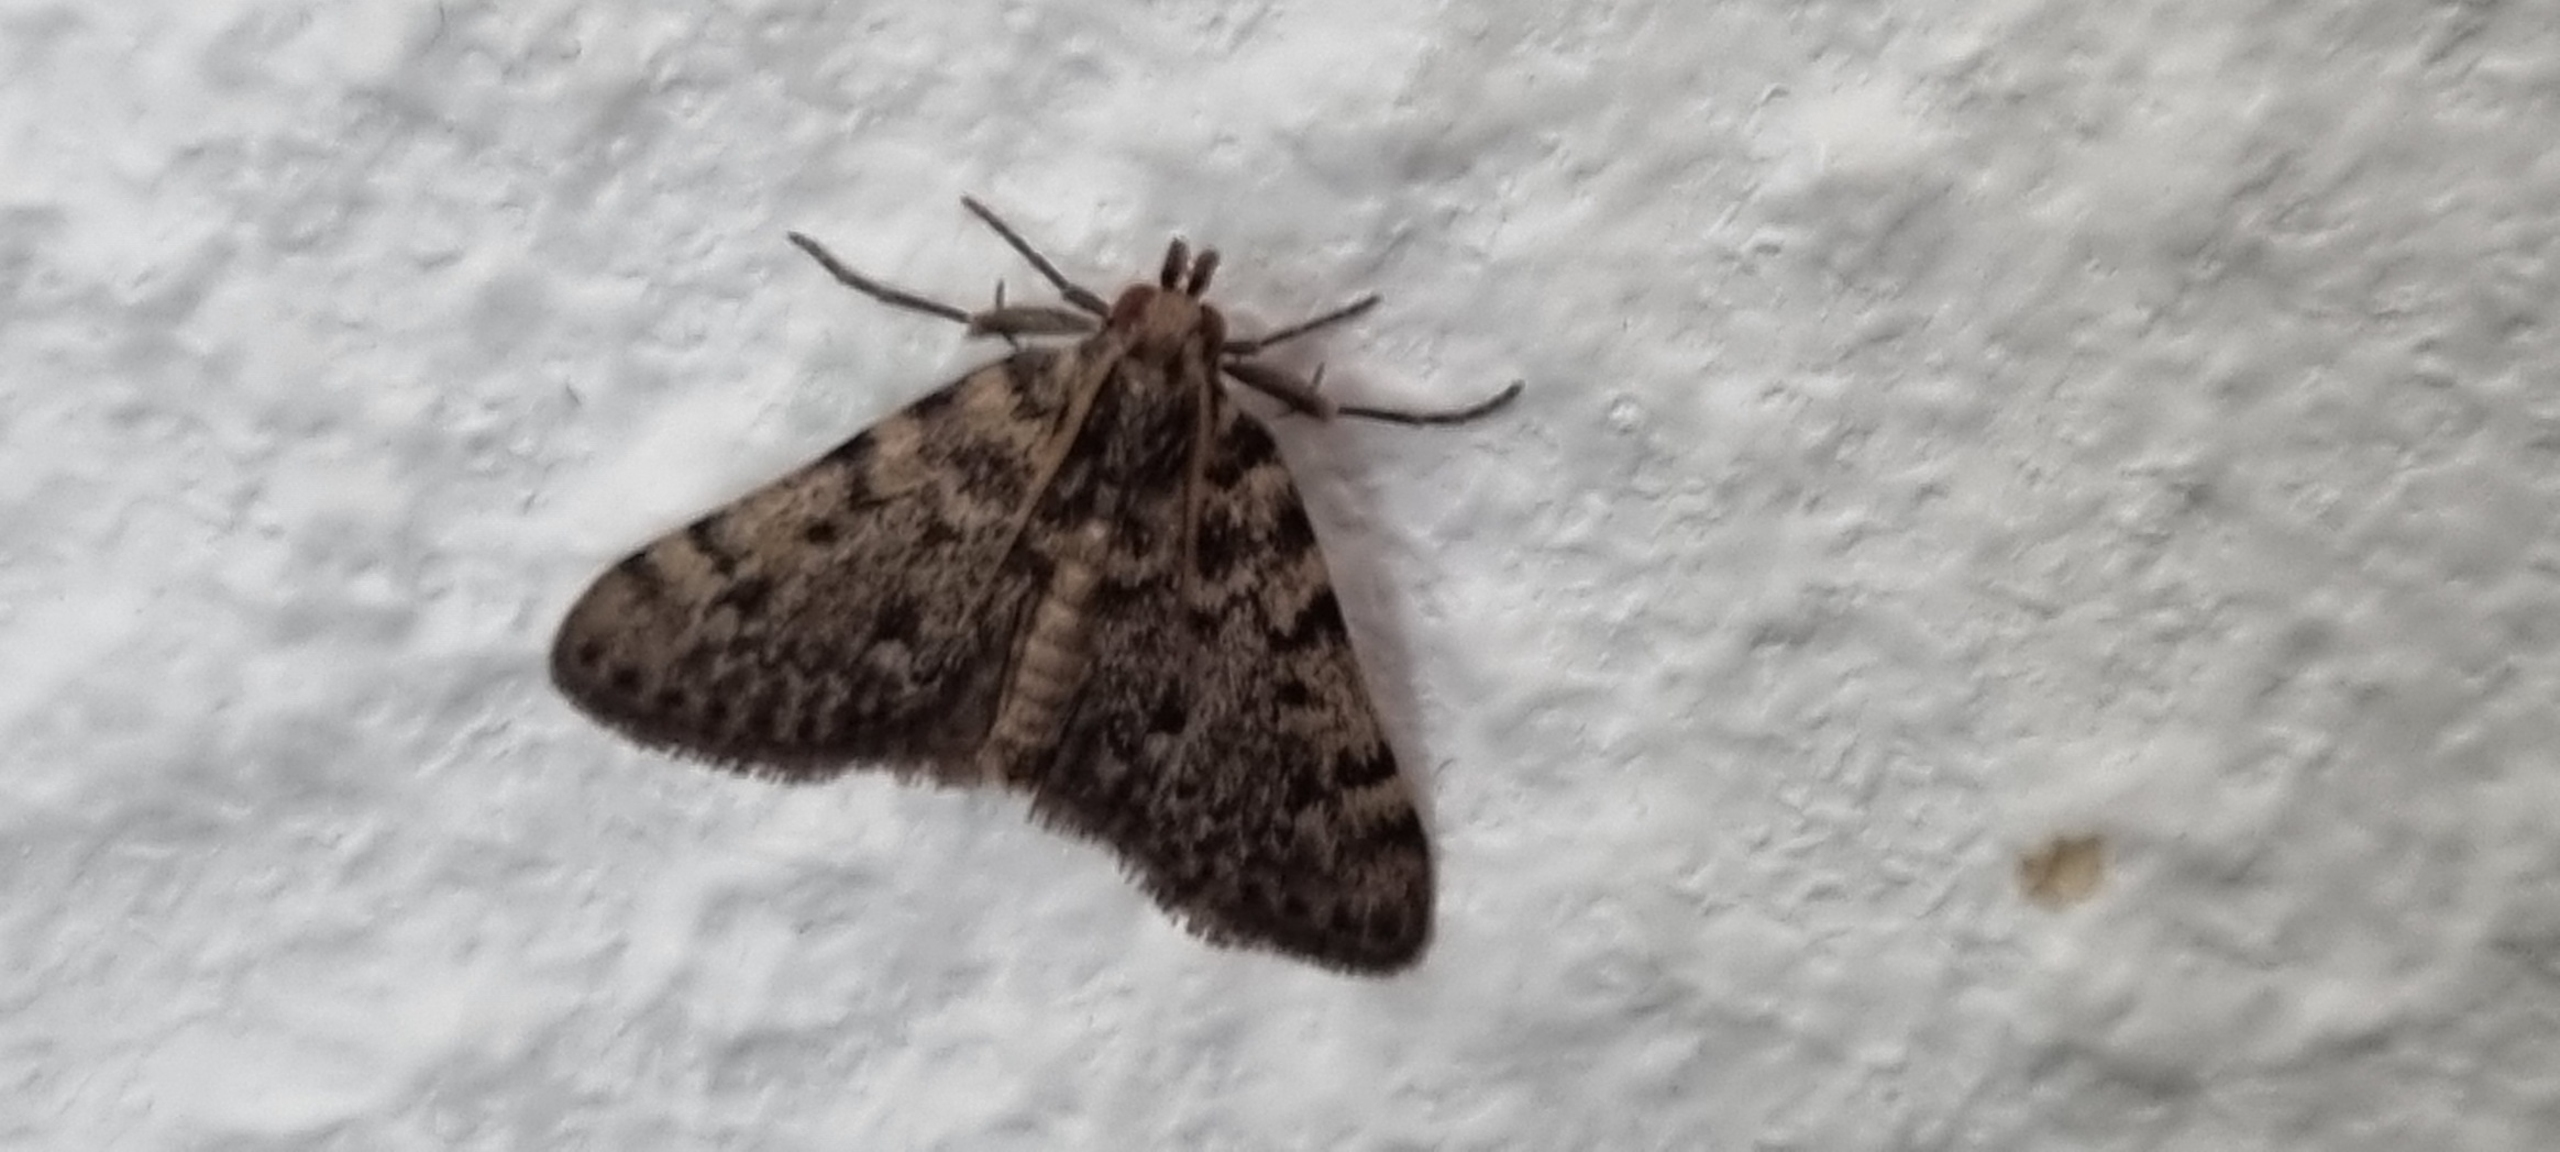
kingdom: Animalia
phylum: Arthropoda
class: Insecta
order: Lepidoptera
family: Pyralidae
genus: Aglossa
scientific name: Aglossa pinguinalis
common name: Fedtmøl
